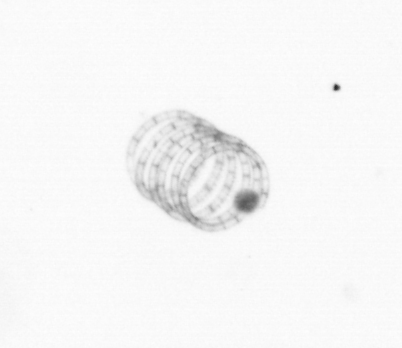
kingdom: Chromista
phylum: Ochrophyta
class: Bacillariophyceae
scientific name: Bacillariophyceae
